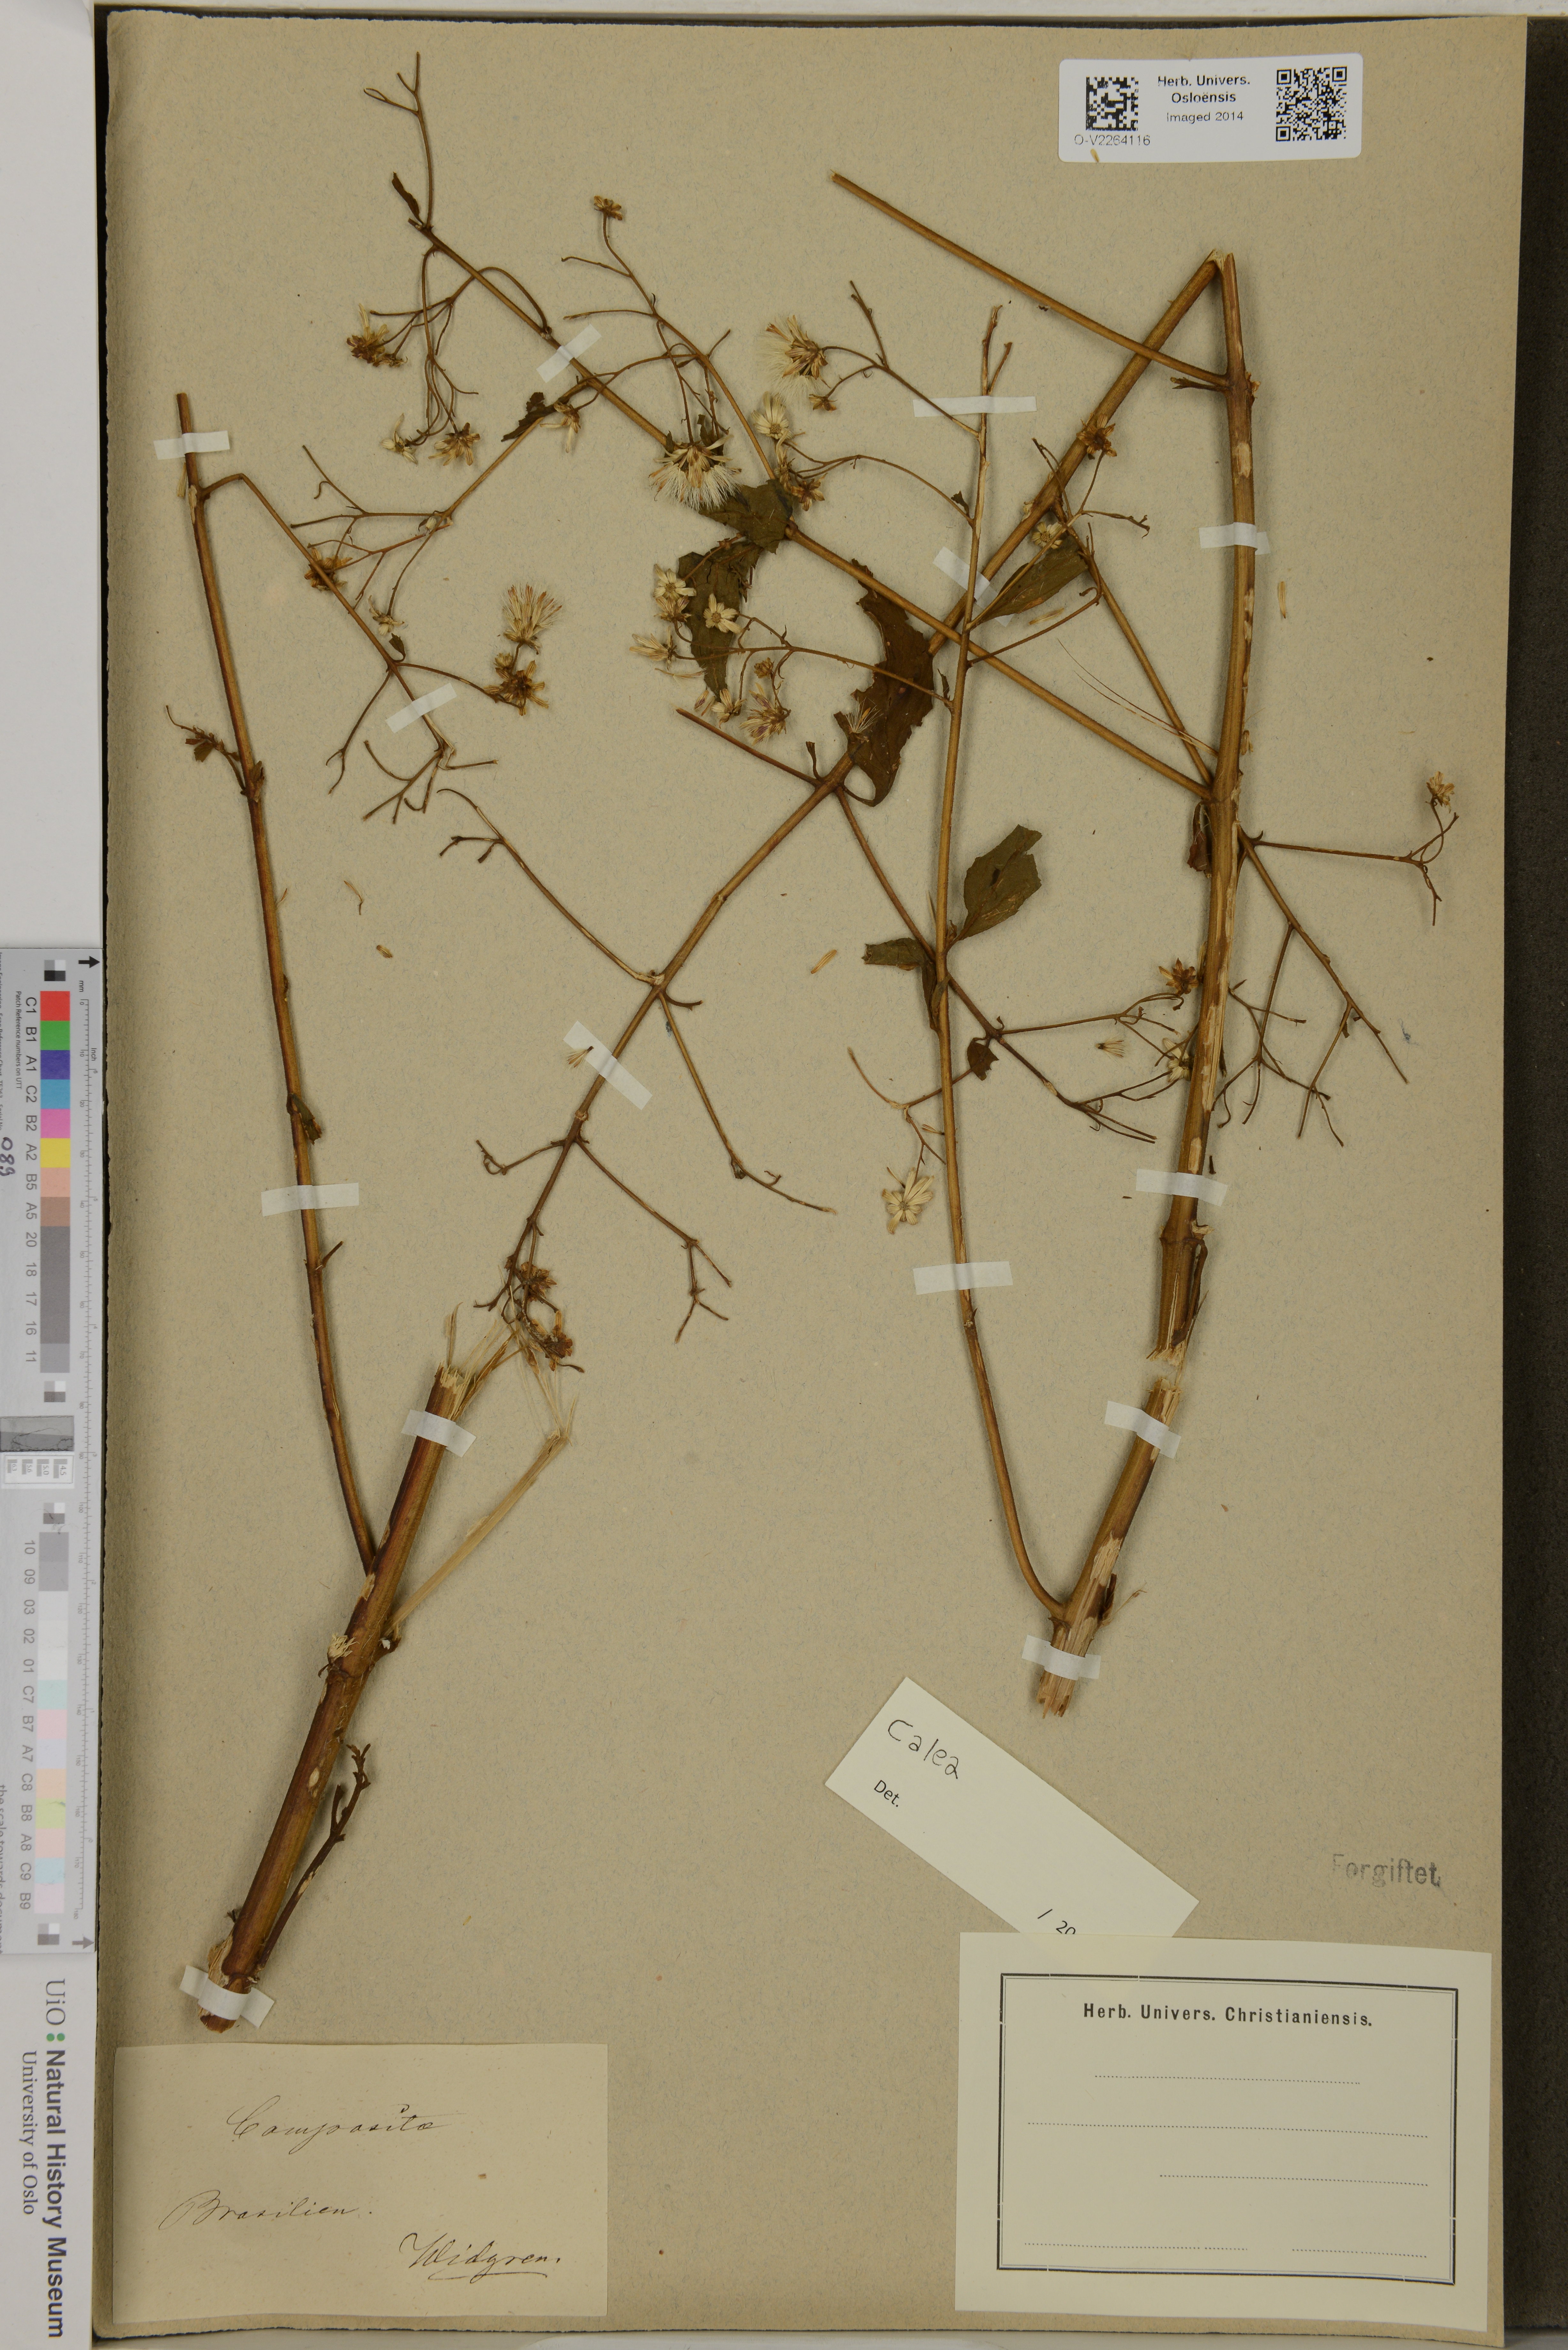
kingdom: Plantae
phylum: Tracheophyta
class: Magnoliopsida
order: Asterales
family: Asteraceae
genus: Calea
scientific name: Calea
